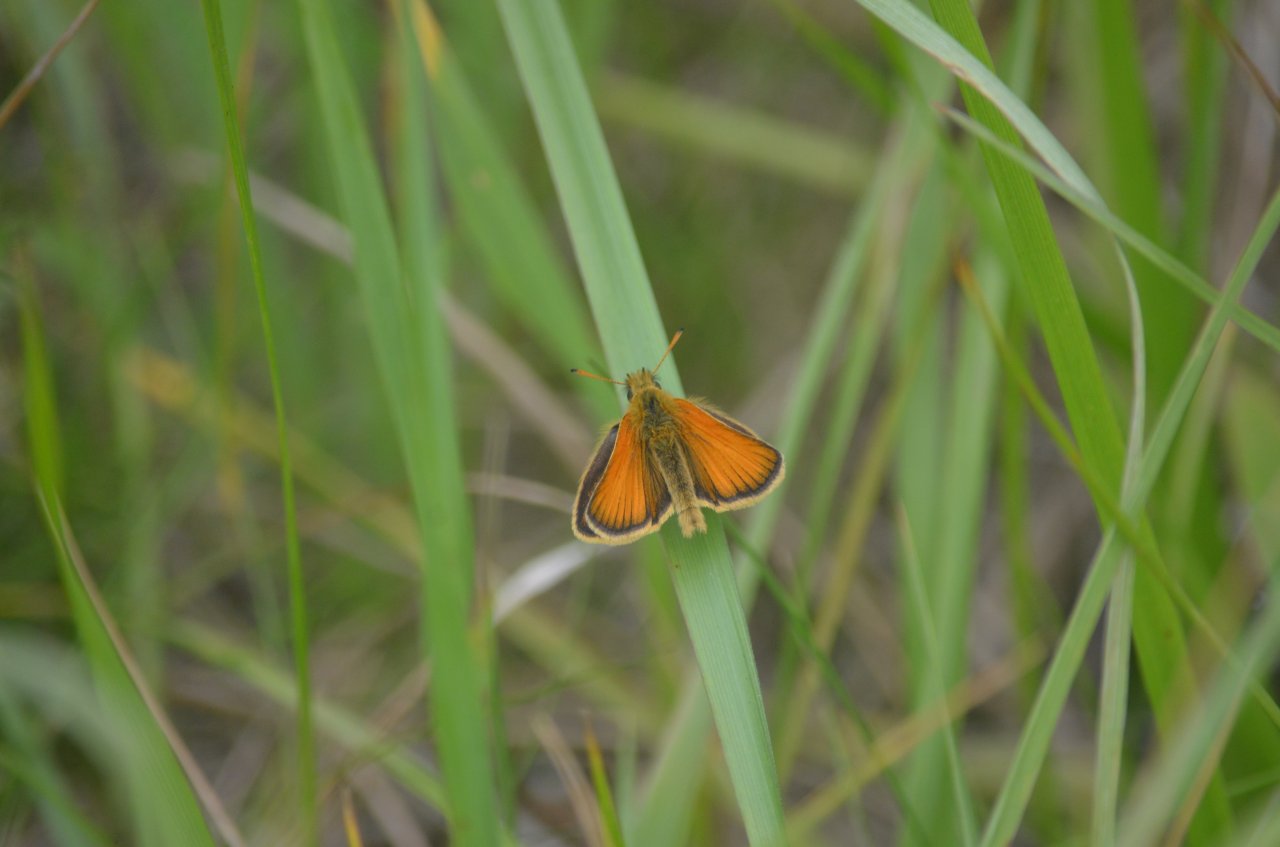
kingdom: Animalia
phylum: Arthropoda
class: Insecta
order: Lepidoptera
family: Hesperiidae
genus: Thymelicus
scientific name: Thymelicus lineola
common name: European Skipper
